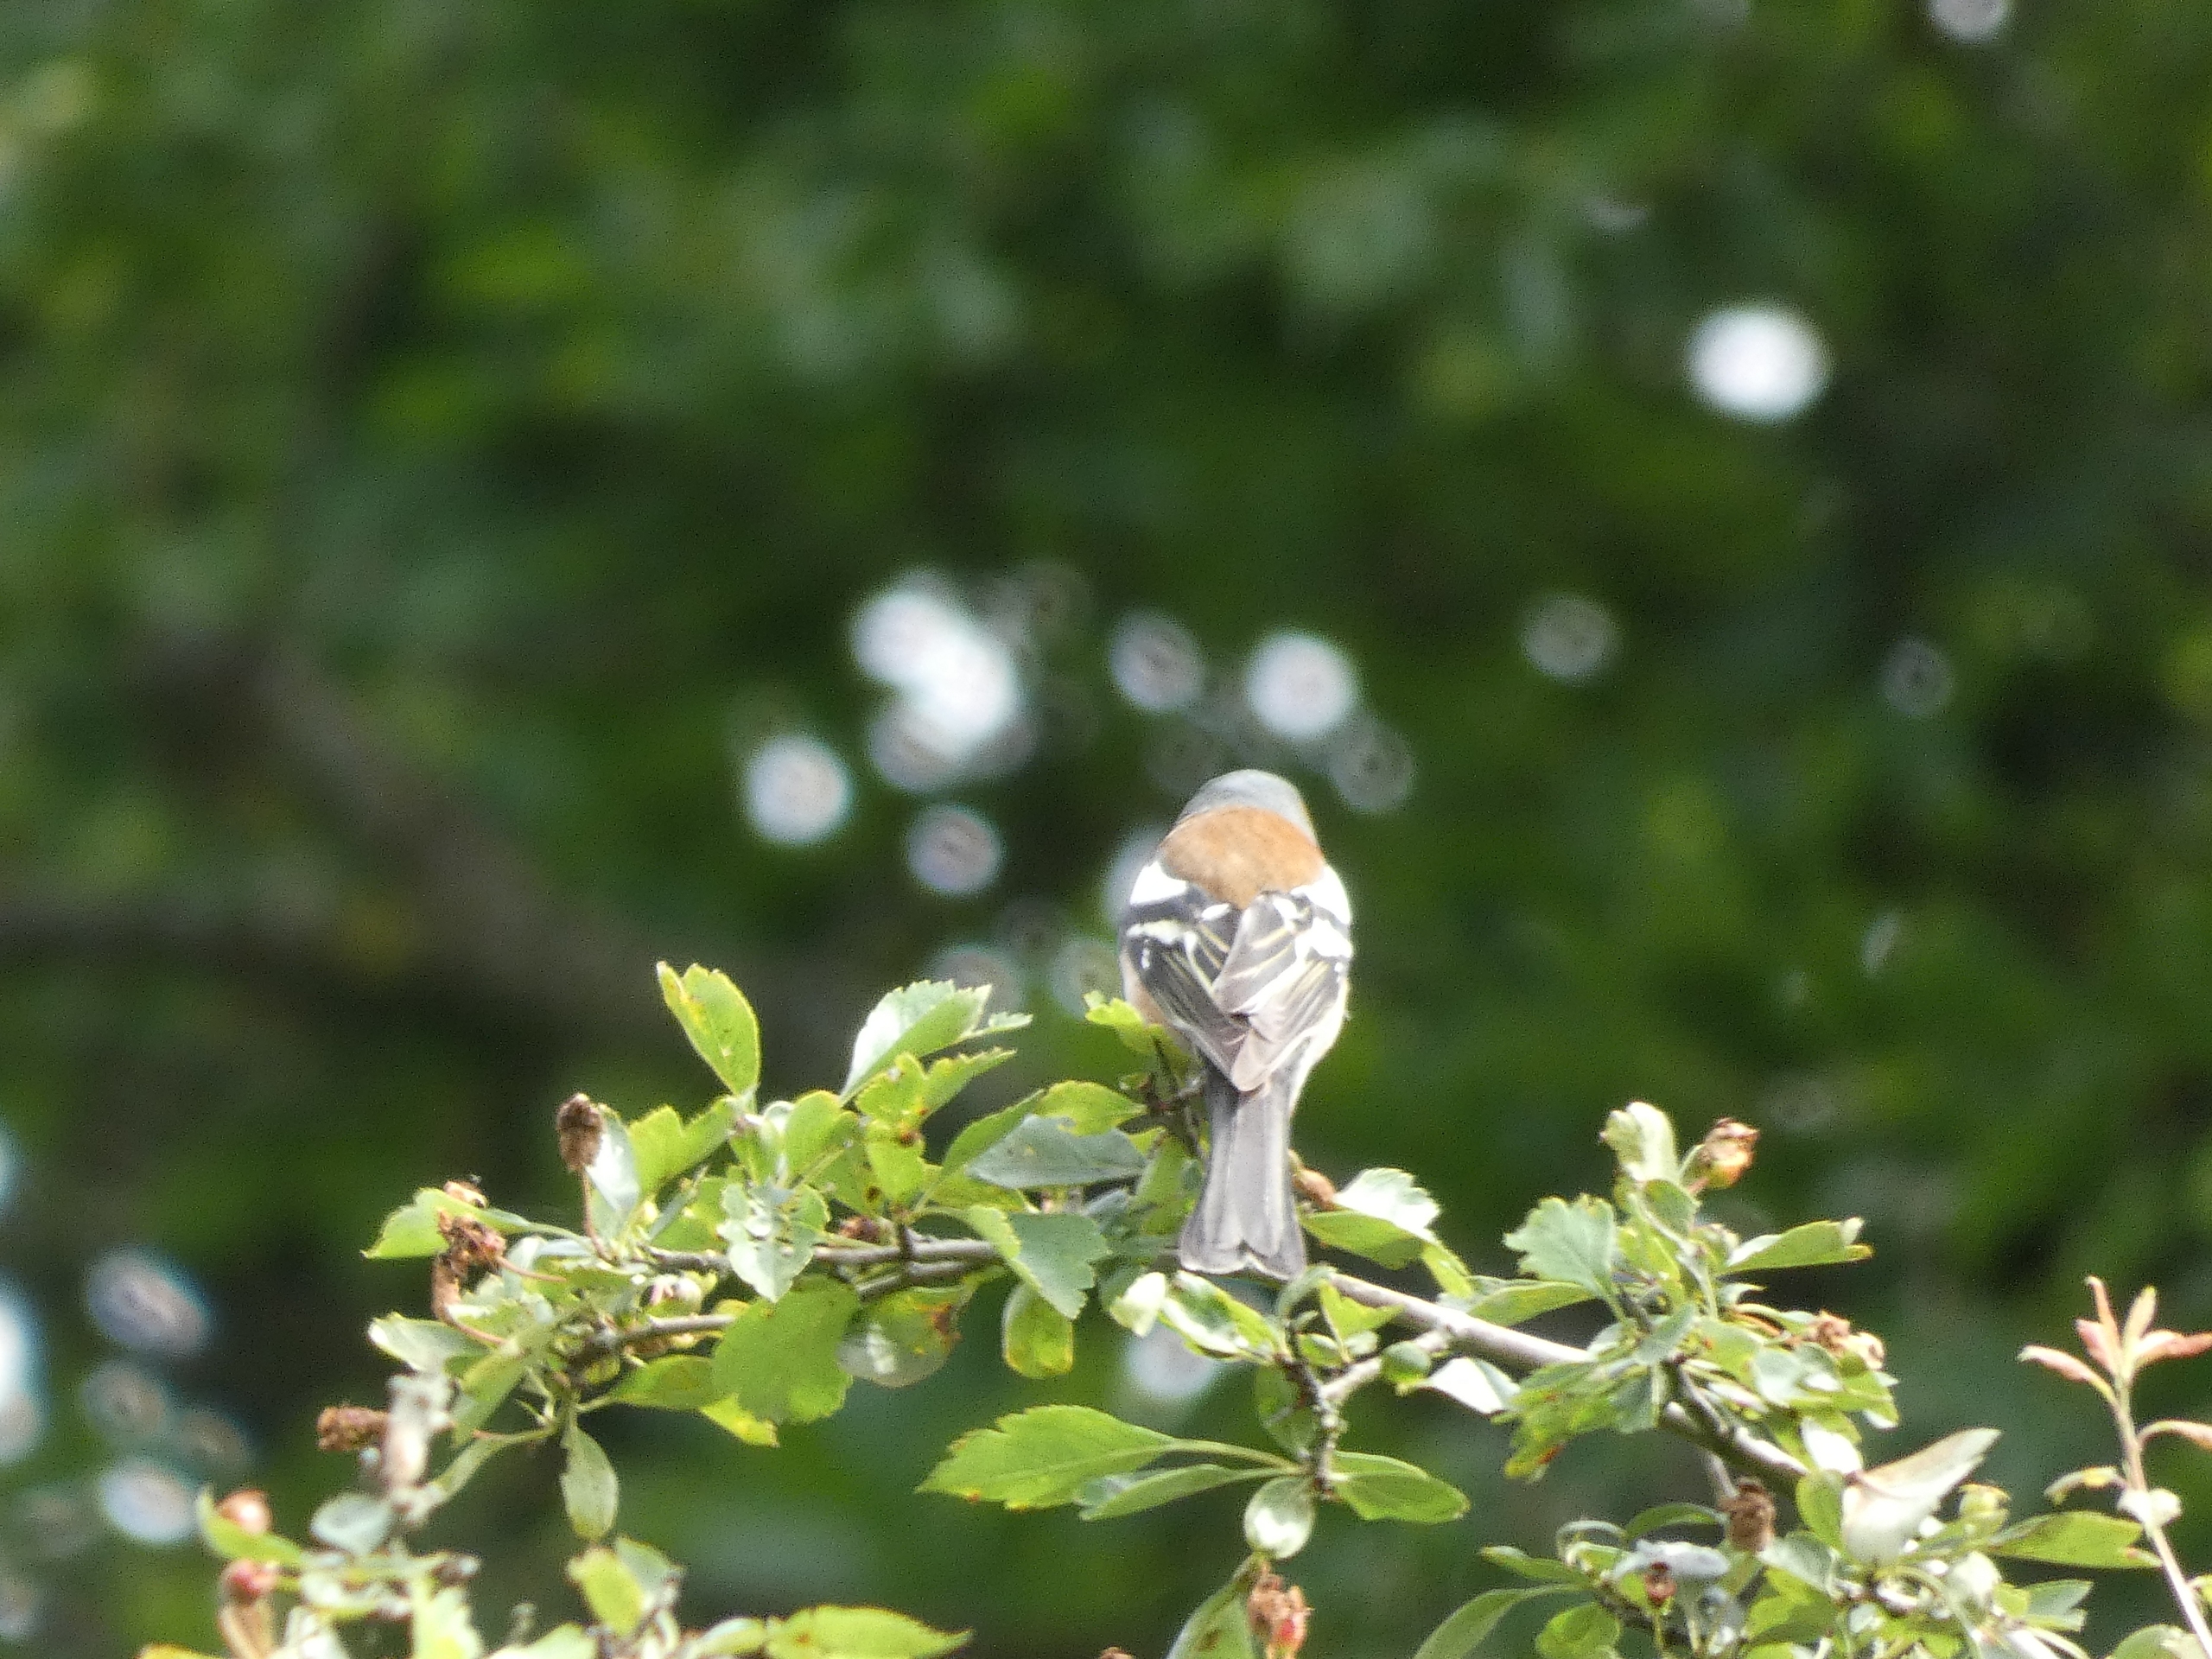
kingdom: Animalia
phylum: Chordata
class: Aves
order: Passeriformes
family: Fringillidae
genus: Fringilla
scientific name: Fringilla coelebs
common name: Bogfinke
